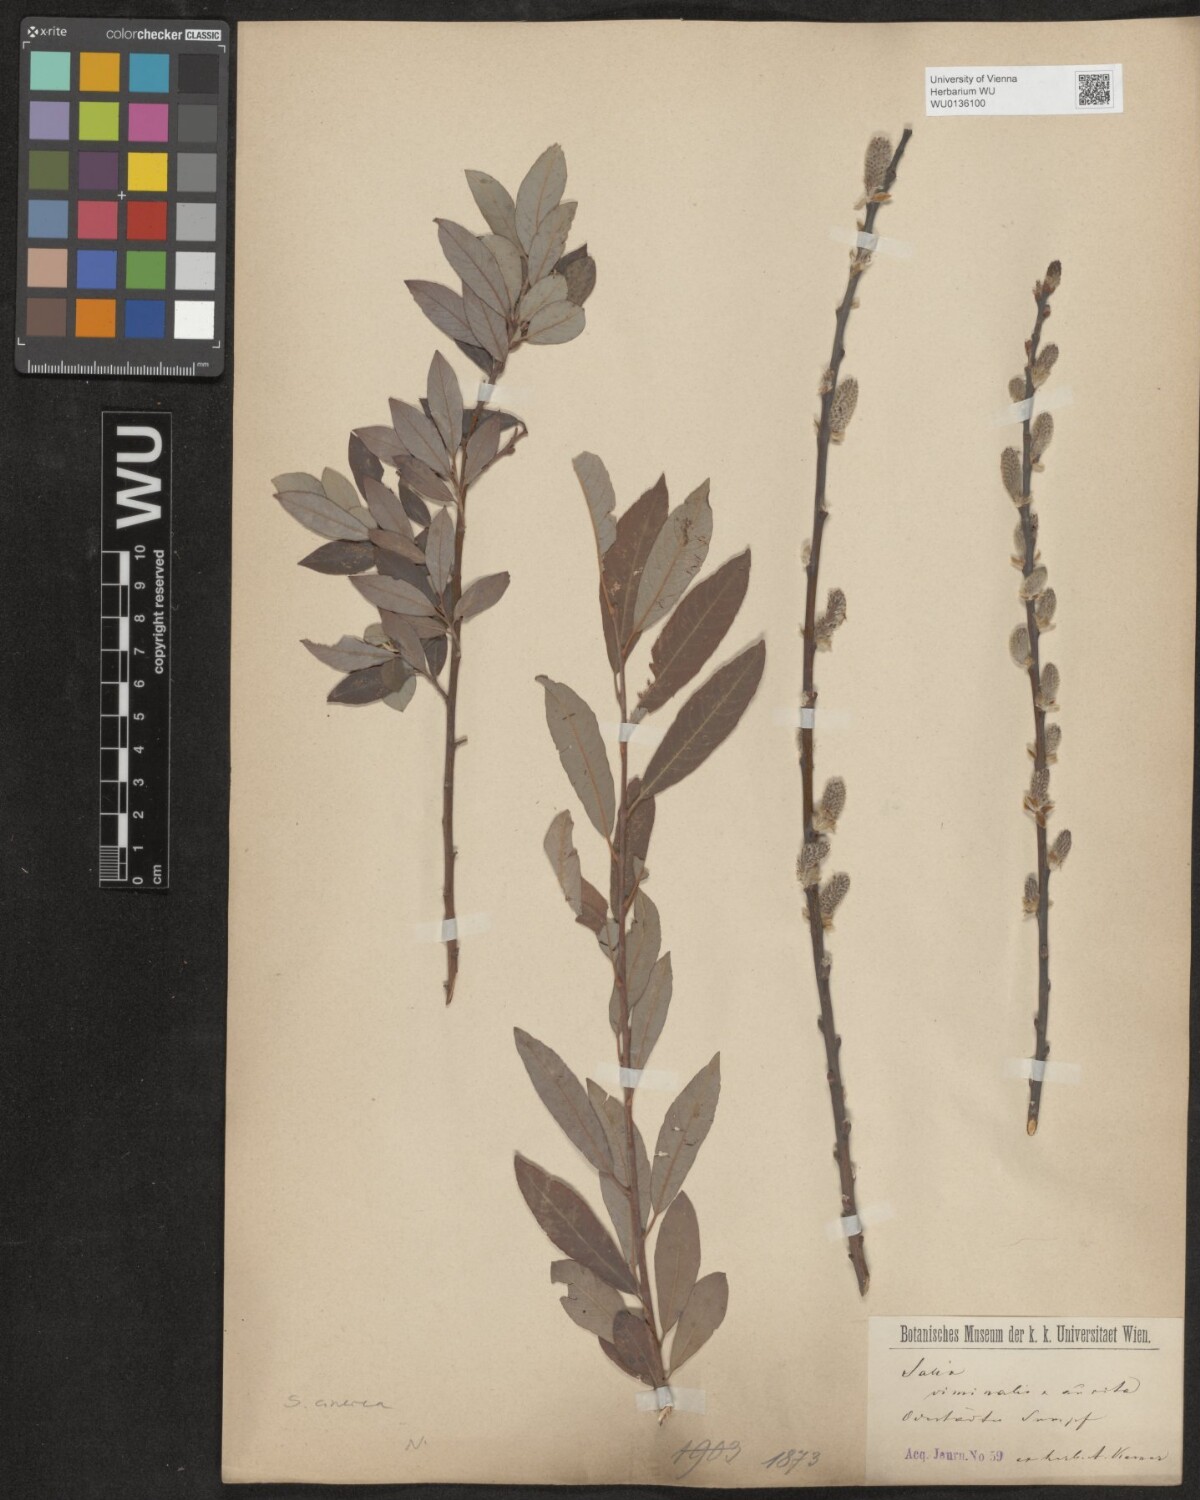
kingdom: Plantae
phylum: Tracheophyta
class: Magnoliopsida
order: Malpighiales
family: Salicaceae
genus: Salix
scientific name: Salix cinerea
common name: Common sallow
